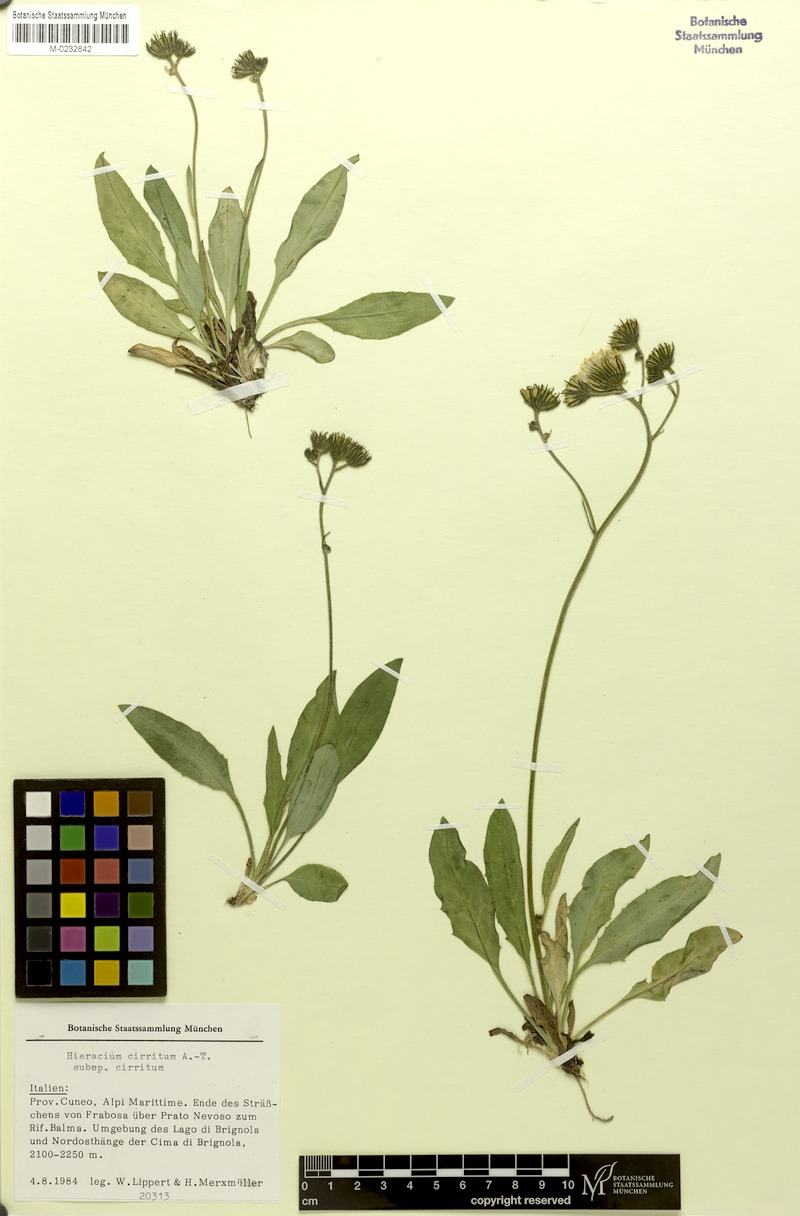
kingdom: Plantae
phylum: Tracheophyta
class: Magnoliopsida
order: Asterales
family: Asteraceae
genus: Hieracium
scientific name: Hieracium cirritum
